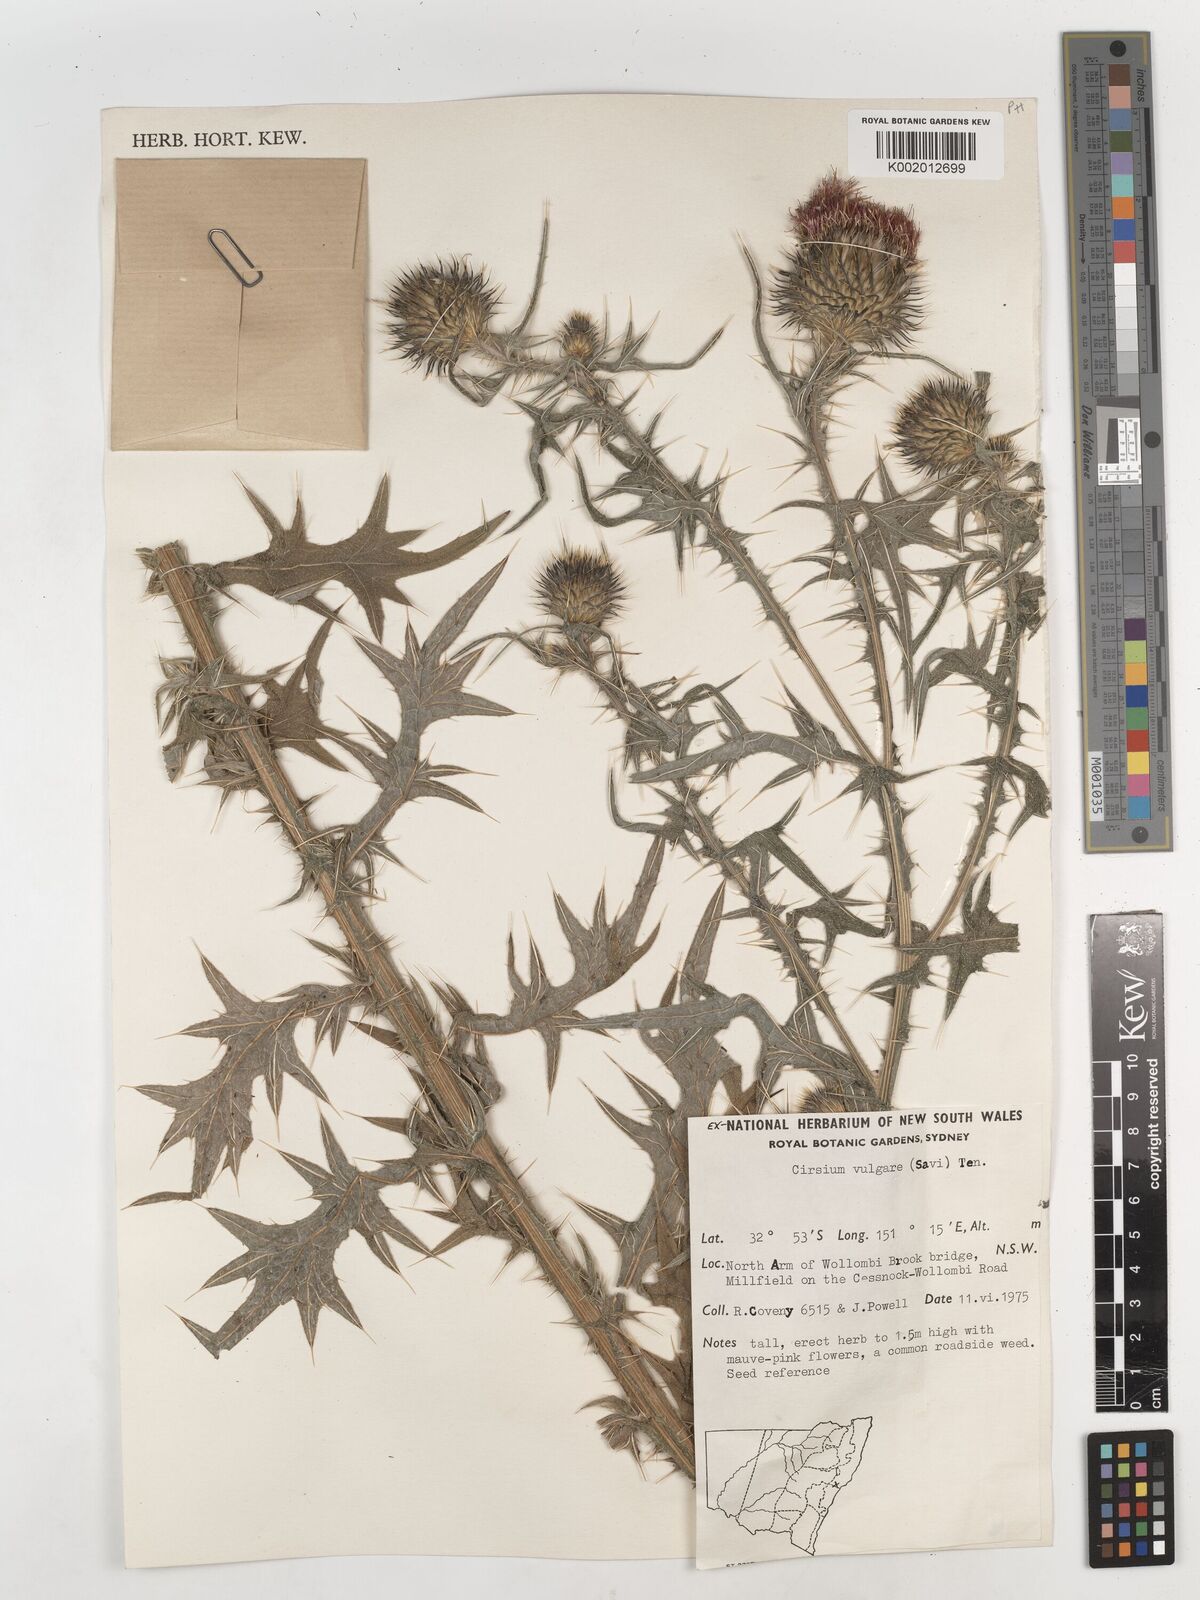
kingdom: Plantae
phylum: Tracheophyta
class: Magnoliopsida
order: Asterales
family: Asteraceae
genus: Cirsium
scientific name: Cirsium vulgare
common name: Bull thistle
